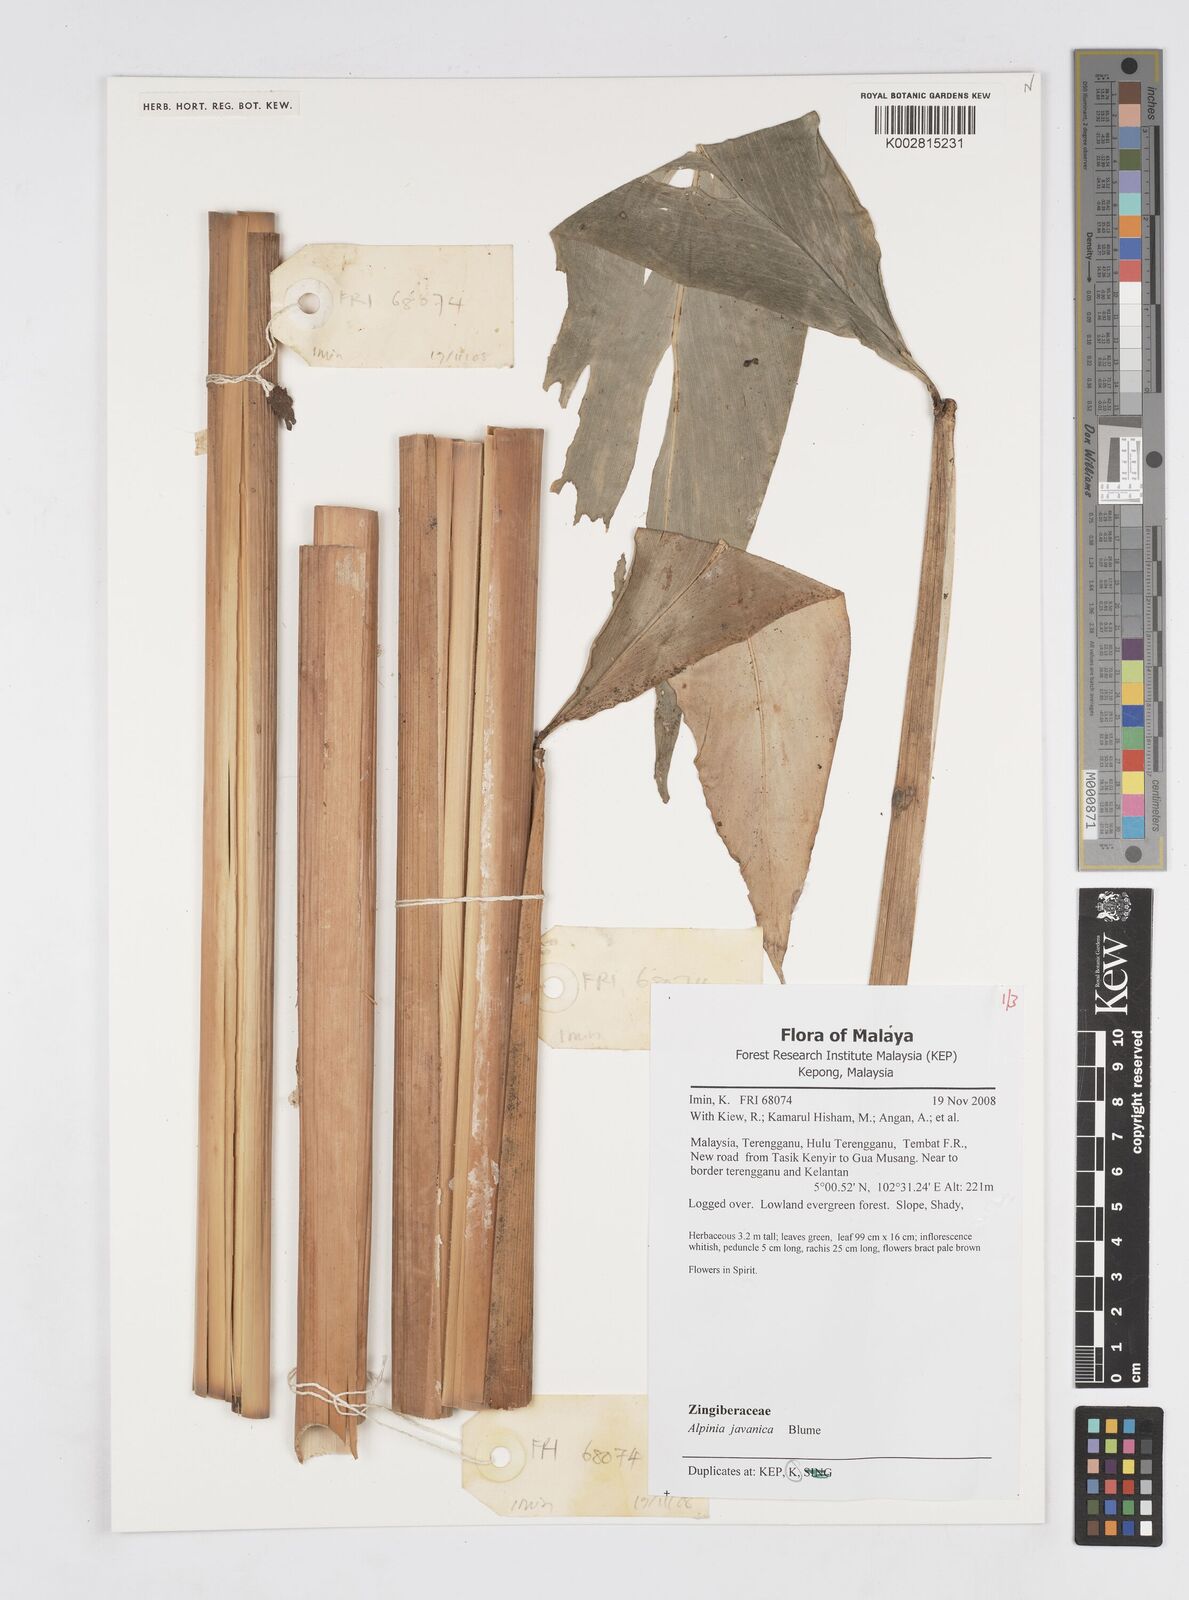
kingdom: Plantae
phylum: Tracheophyta
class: Liliopsida
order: Zingiberales
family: Zingiberaceae
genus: Alpinia
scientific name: Alpinia javanica
